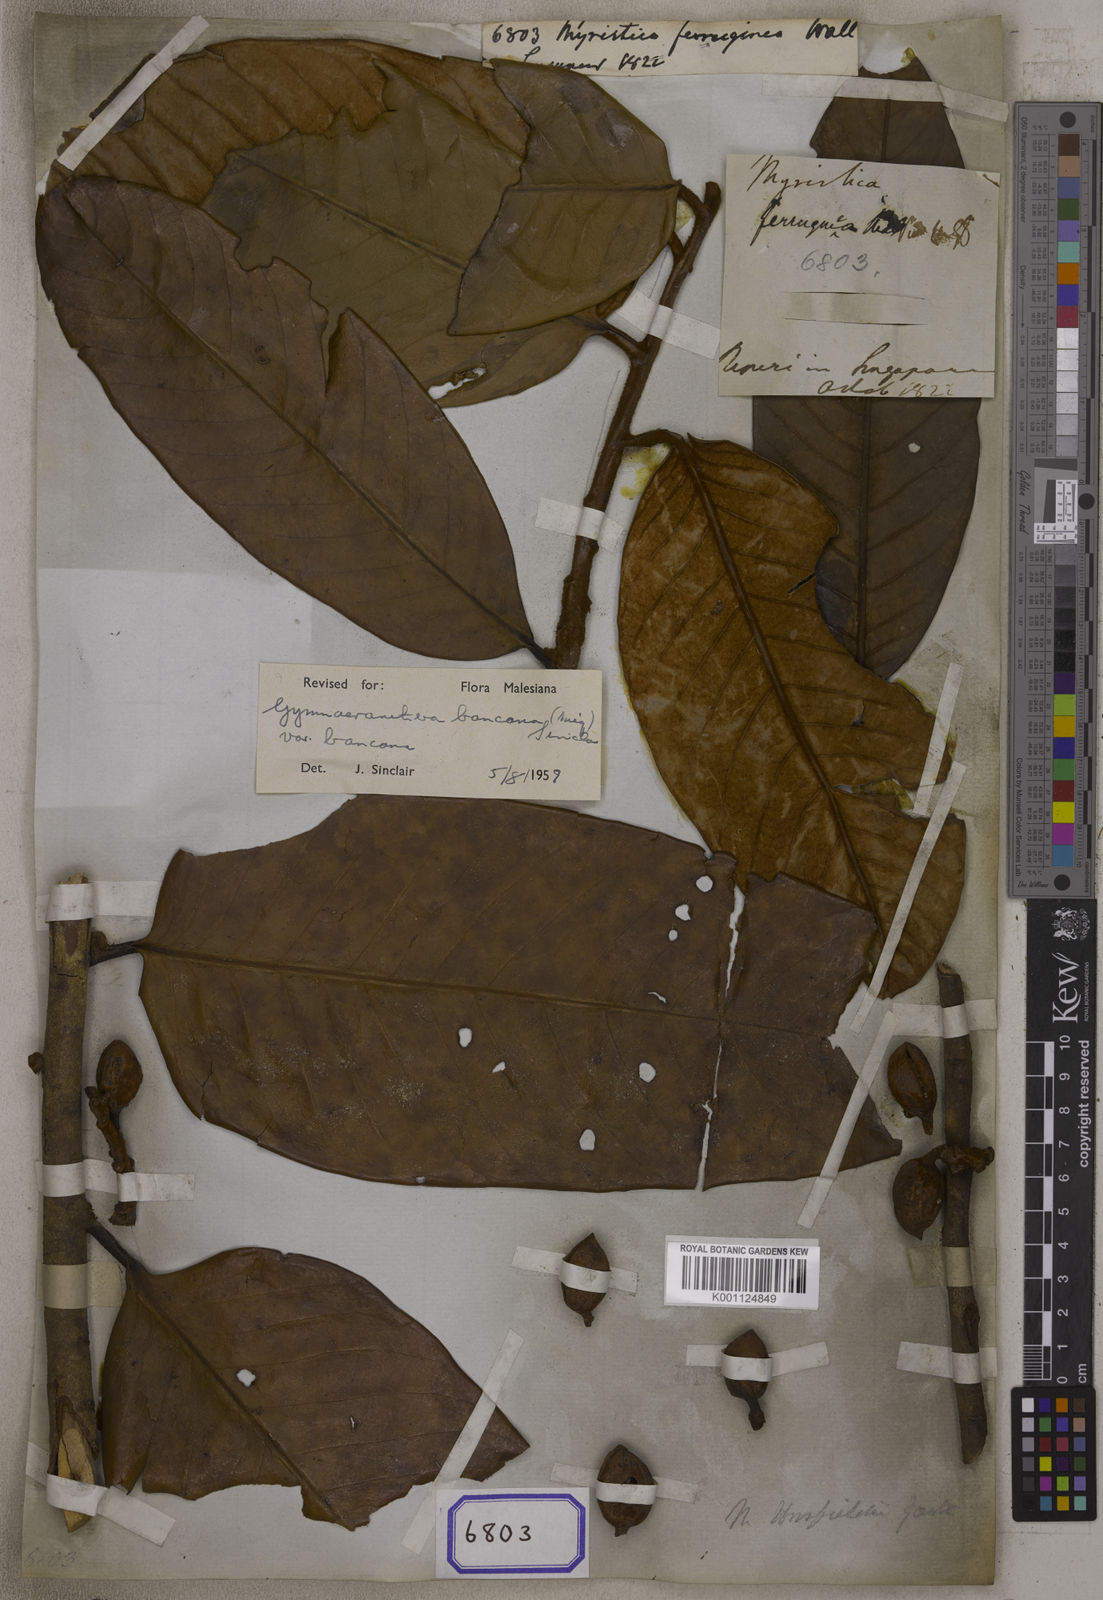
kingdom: Plantae
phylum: Tracheophyta
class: Magnoliopsida
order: Magnoliales
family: Myristicaceae
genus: Myristica
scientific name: Myristica
